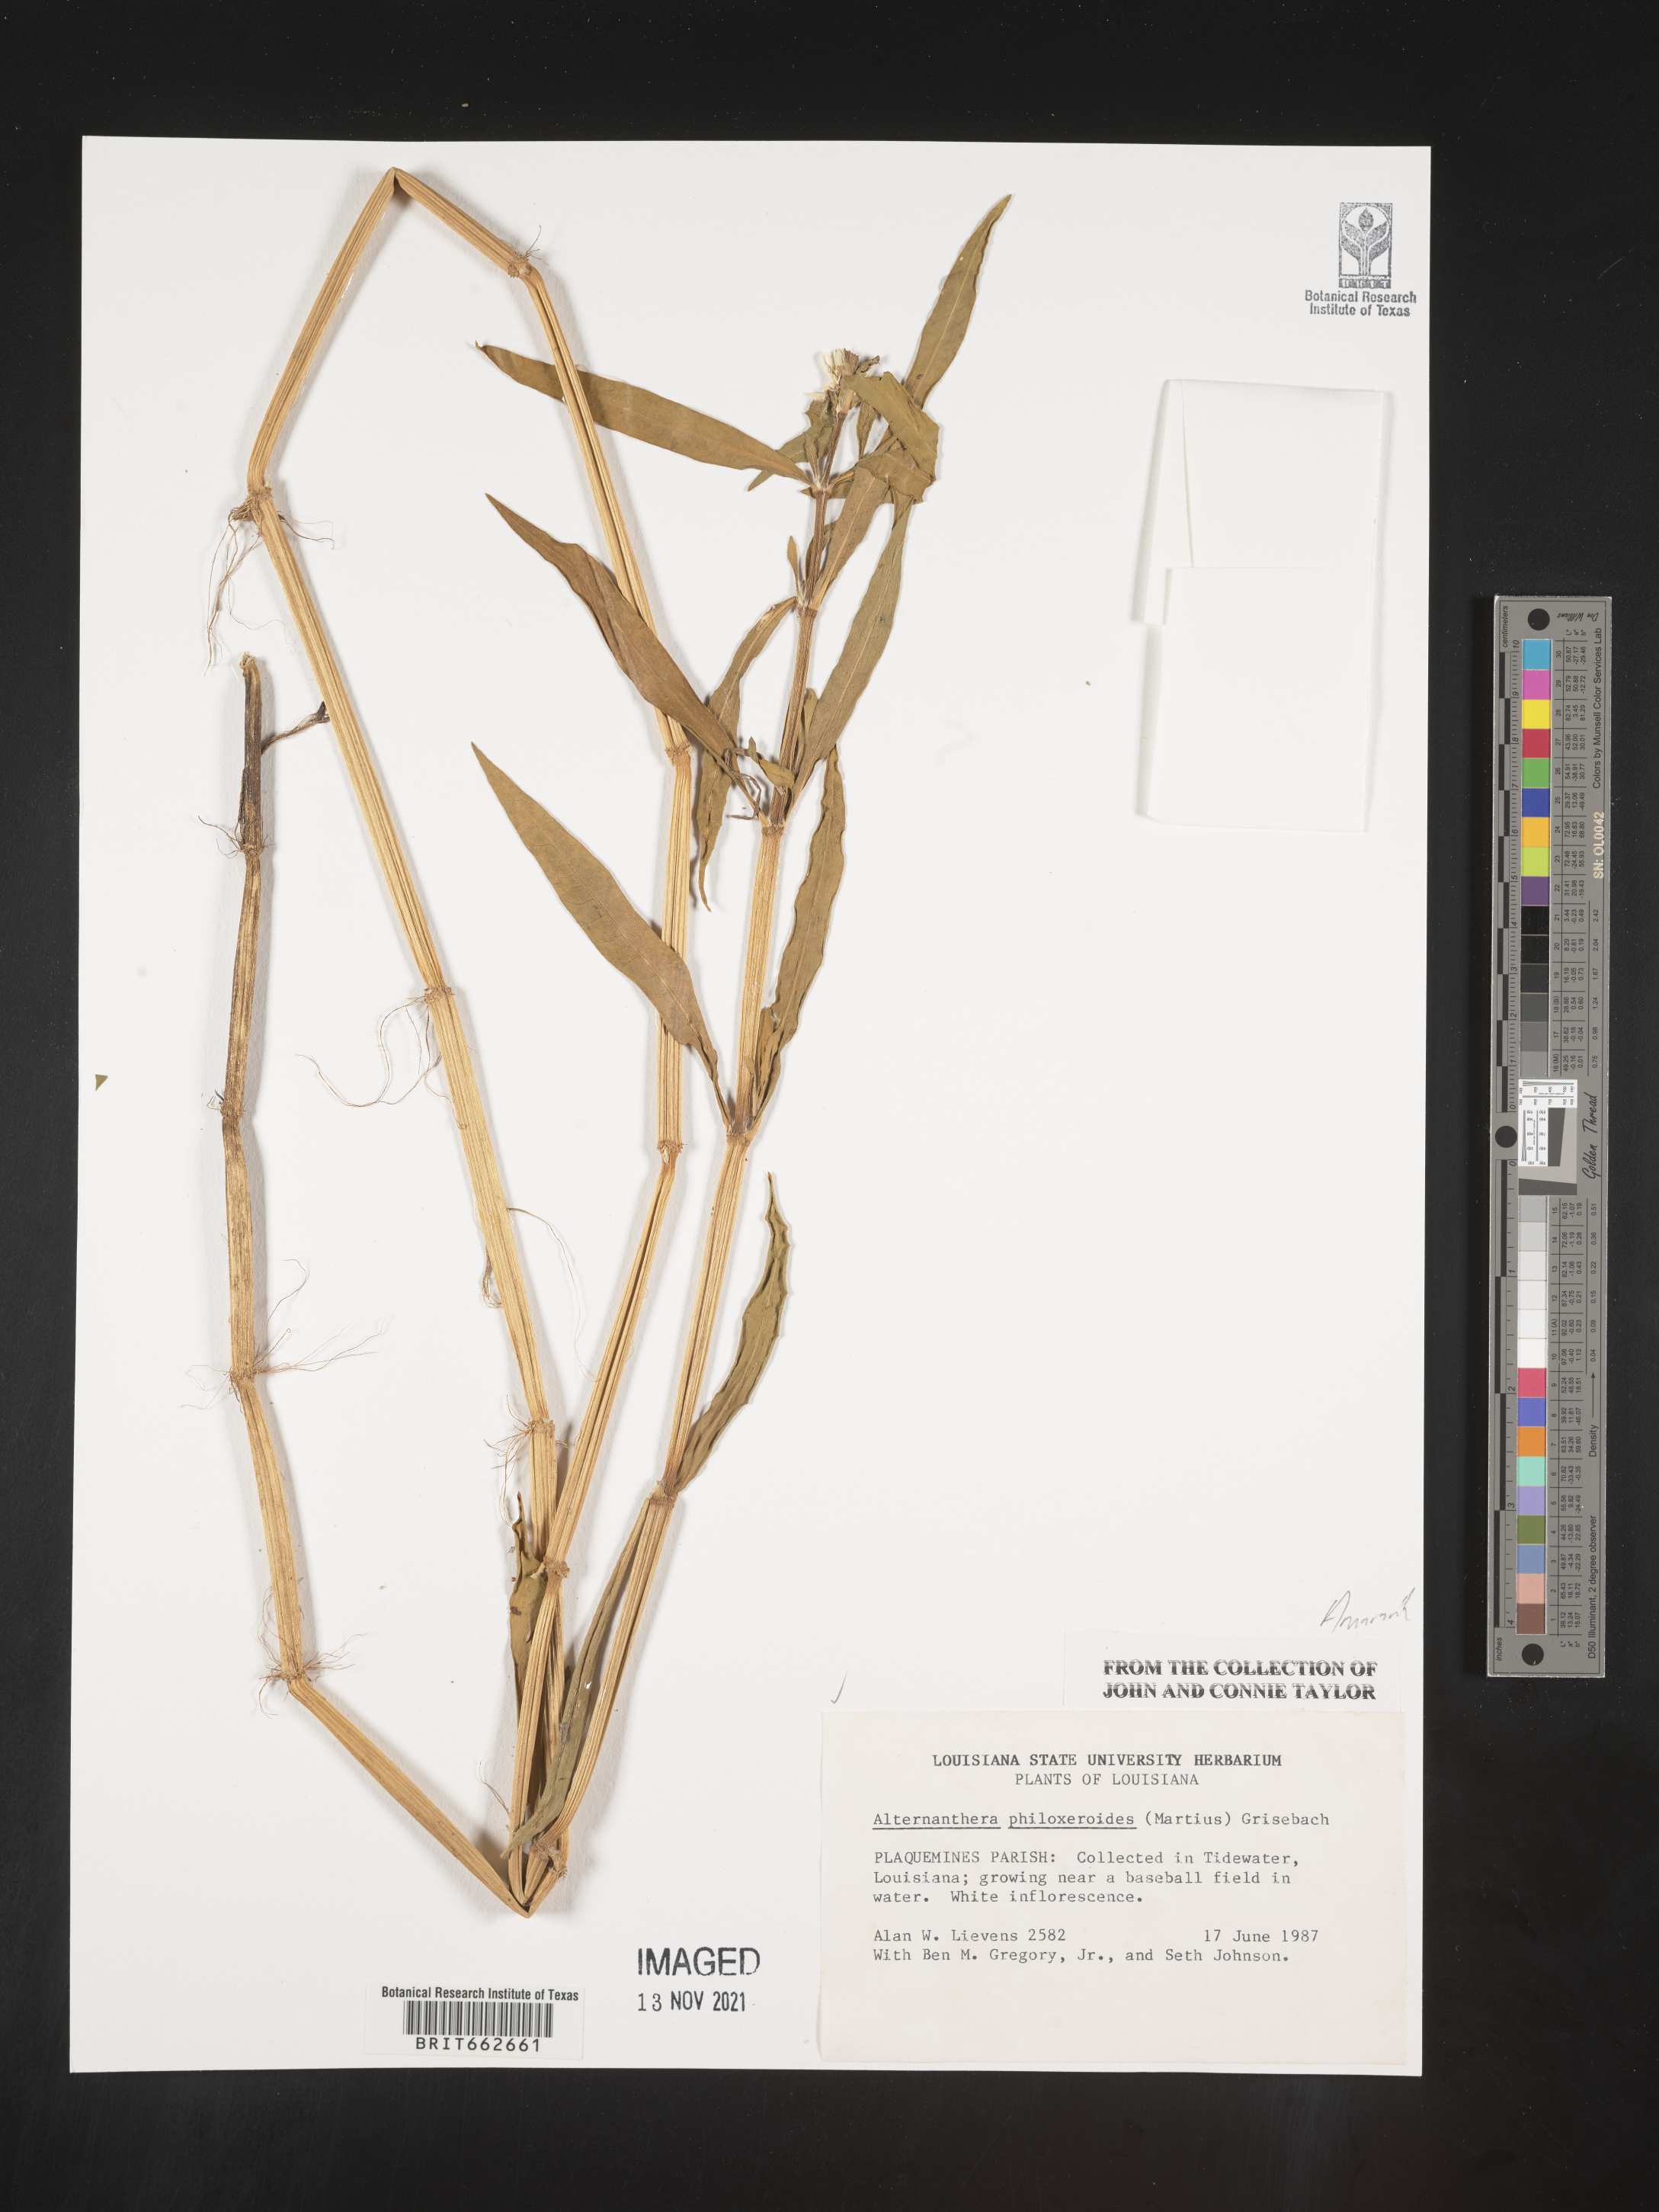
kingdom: Plantae
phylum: Tracheophyta
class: Magnoliopsida
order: Caryophyllales
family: Amaranthaceae
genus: Alternanthera
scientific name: Alternanthera philoxeroides
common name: Alligatorweed
